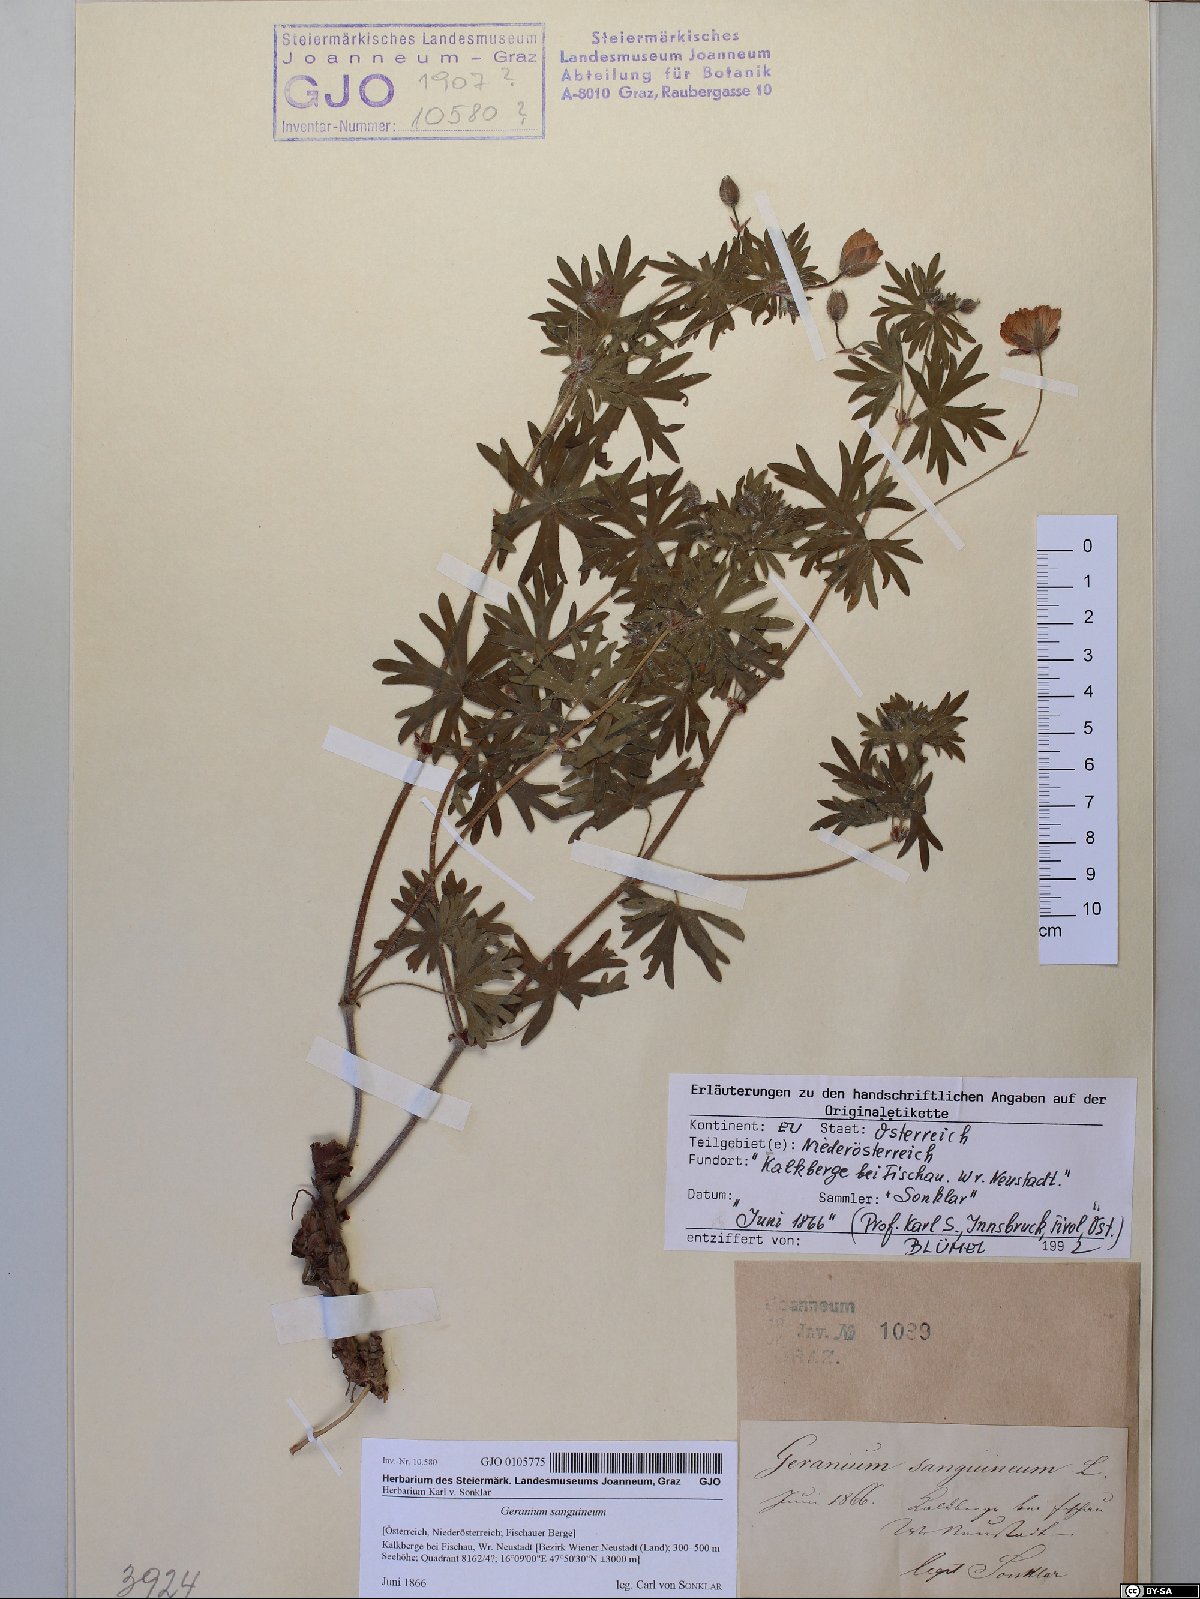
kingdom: Plantae
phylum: Tracheophyta
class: Magnoliopsida
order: Geraniales
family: Geraniaceae
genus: Geranium
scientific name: Geranium sanguineum
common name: Bloody crane's-bill
